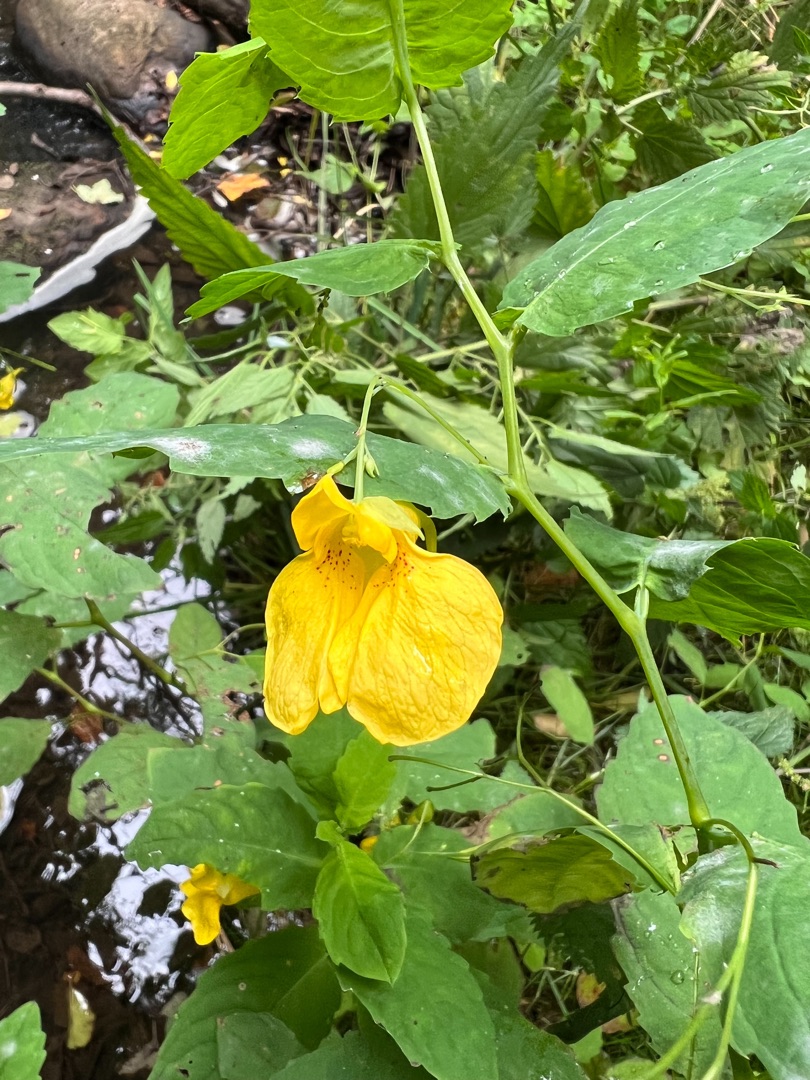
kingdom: Plantae
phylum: Tracheophyta
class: Magnoliopsida
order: Ericales
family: Balsaminaceae
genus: Impatiens
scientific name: Impatiens noli-tangere
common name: Spring-balsamin
